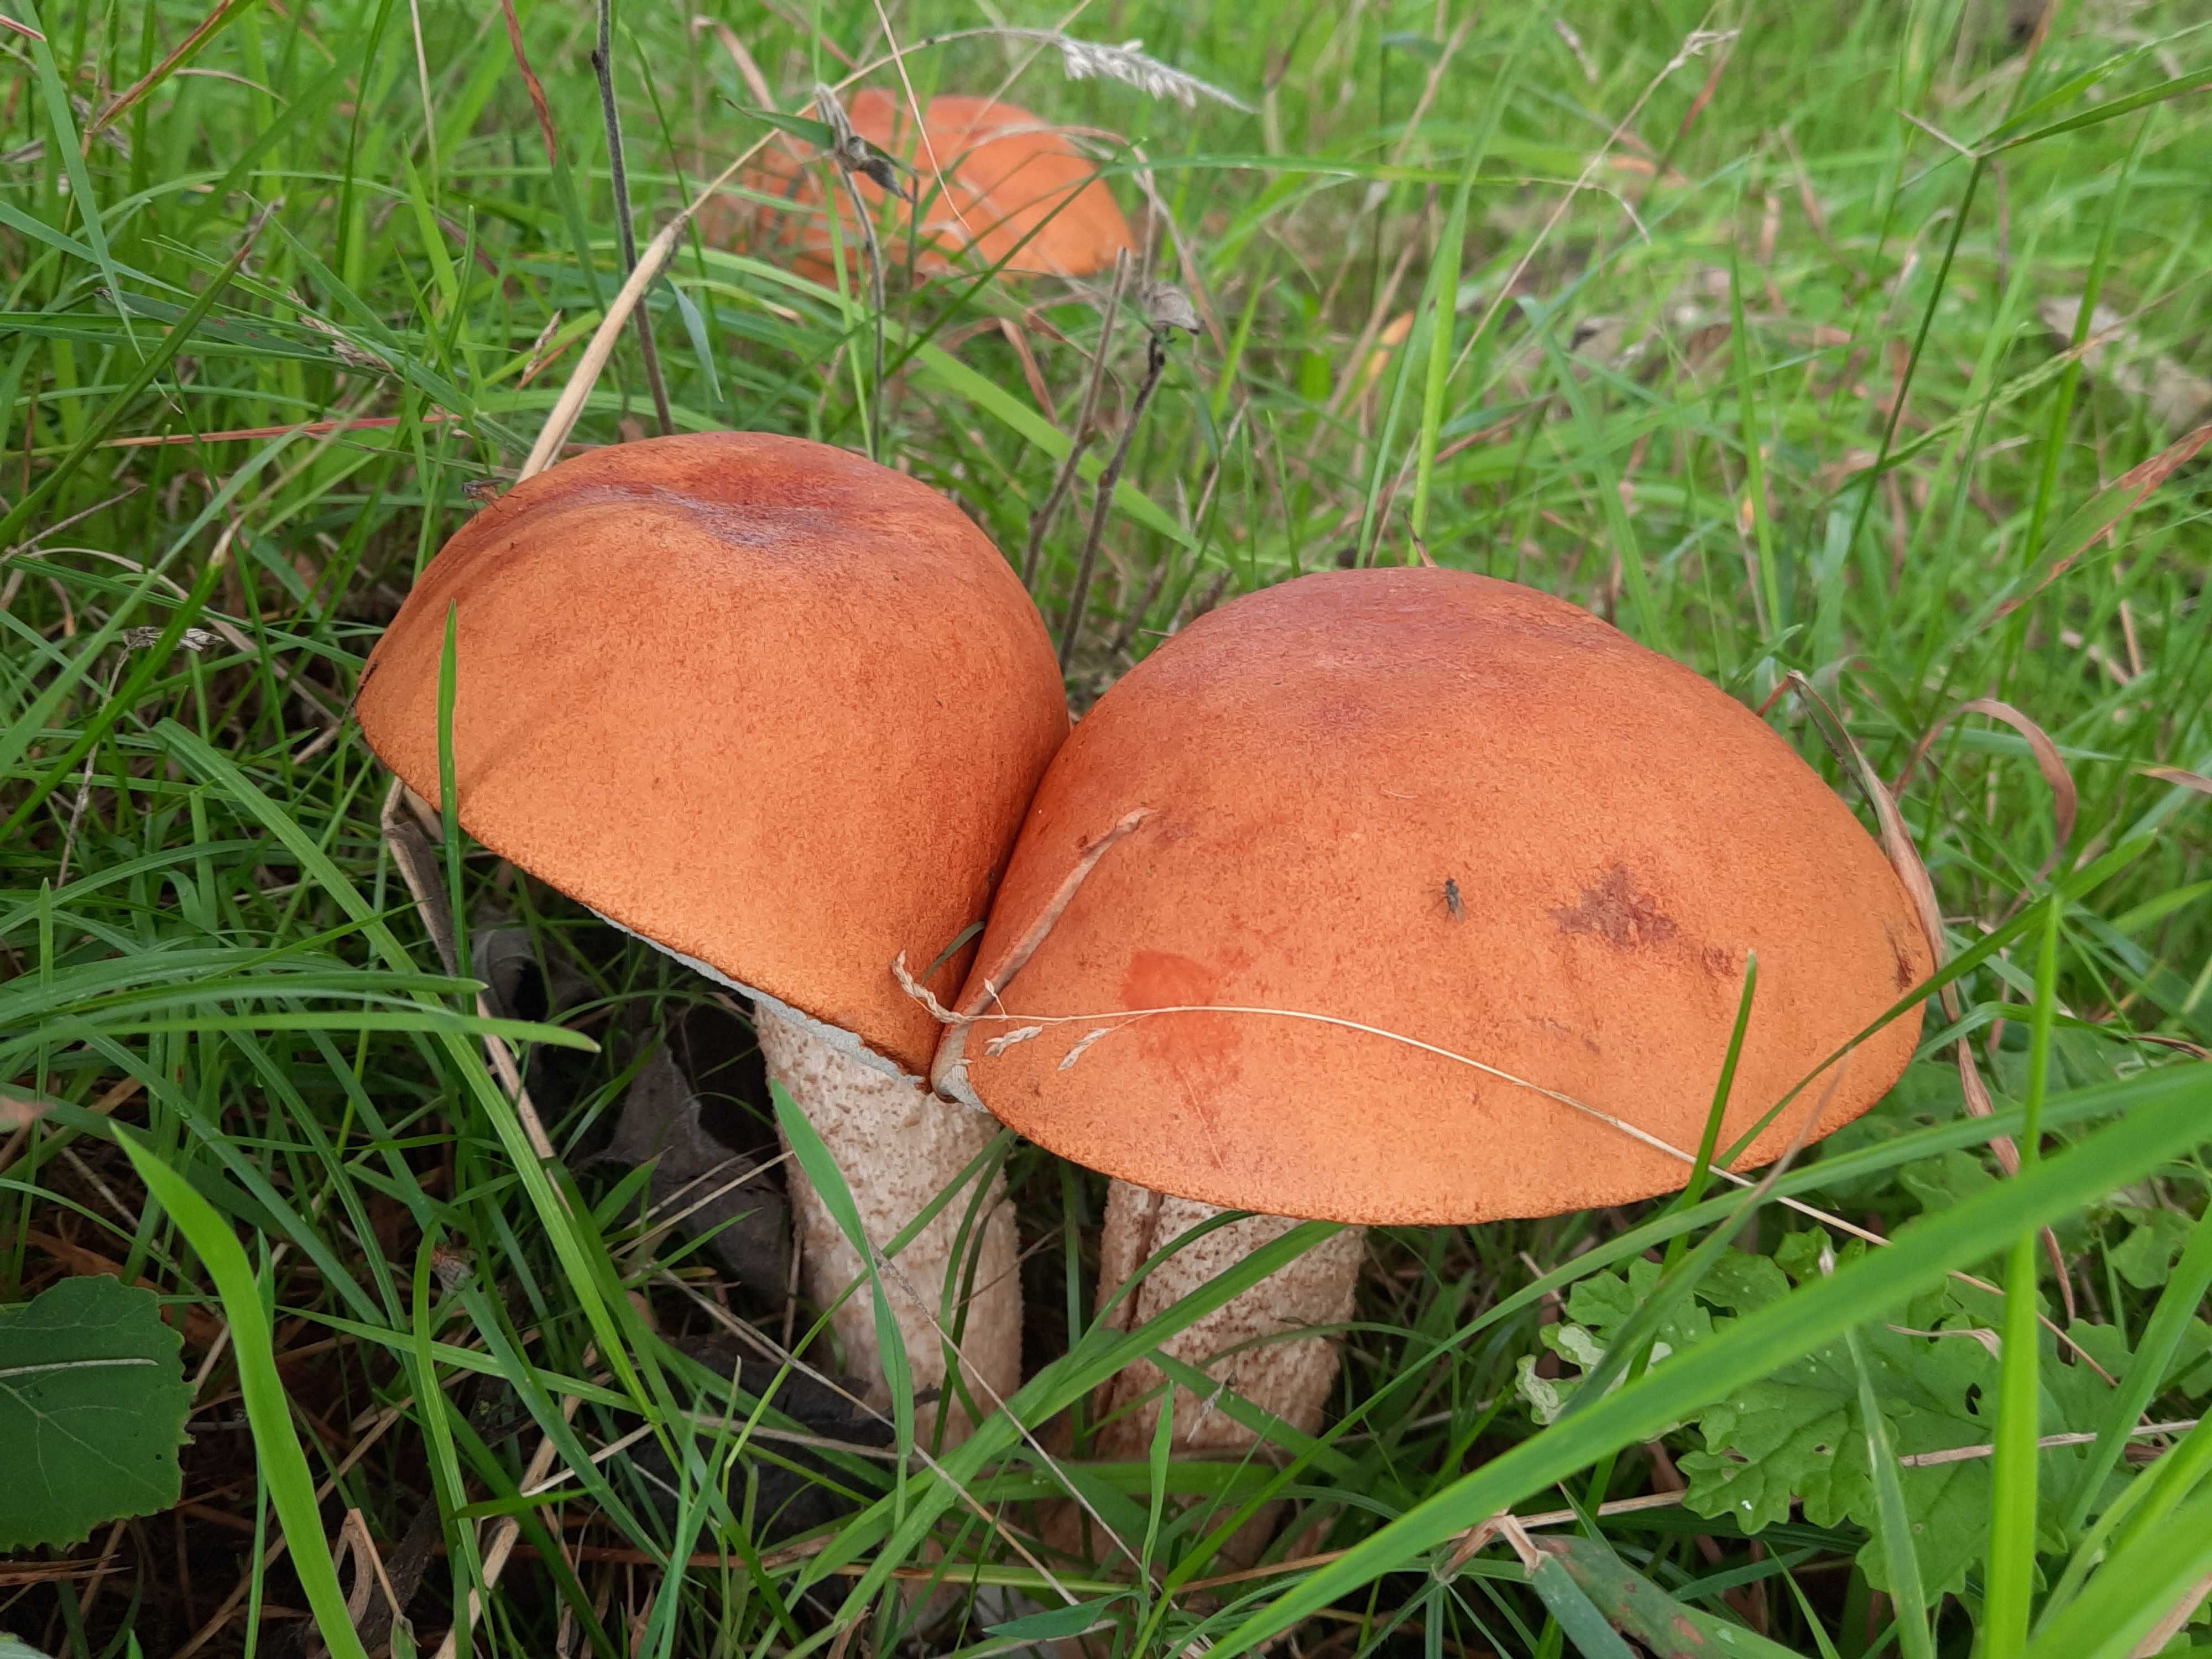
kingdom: Fungi
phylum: Basidiomycota
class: Agaricomycetes
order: Boletales
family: Boletaceae
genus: Leccinum
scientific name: Leccinum albostipitatum
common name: aspe-skælrørhat
